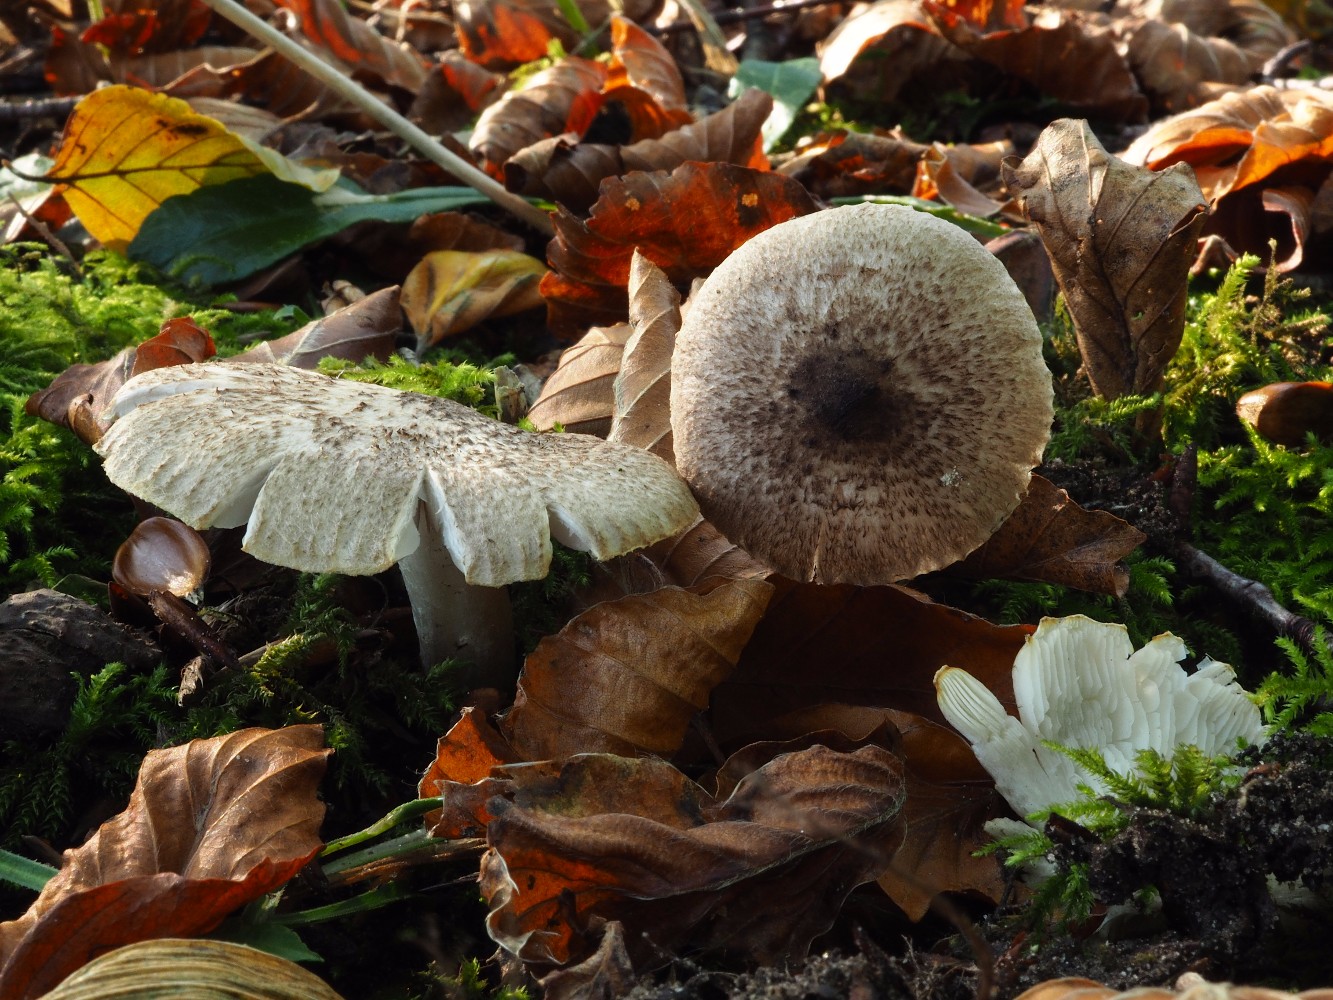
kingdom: Fungi
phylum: Basidiomycota
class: Agaricomycetes
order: Agaricales
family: Tricholomataceae
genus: Tricholoma
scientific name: Tricholoma scalpturatum
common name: gulplettet ridderhat
